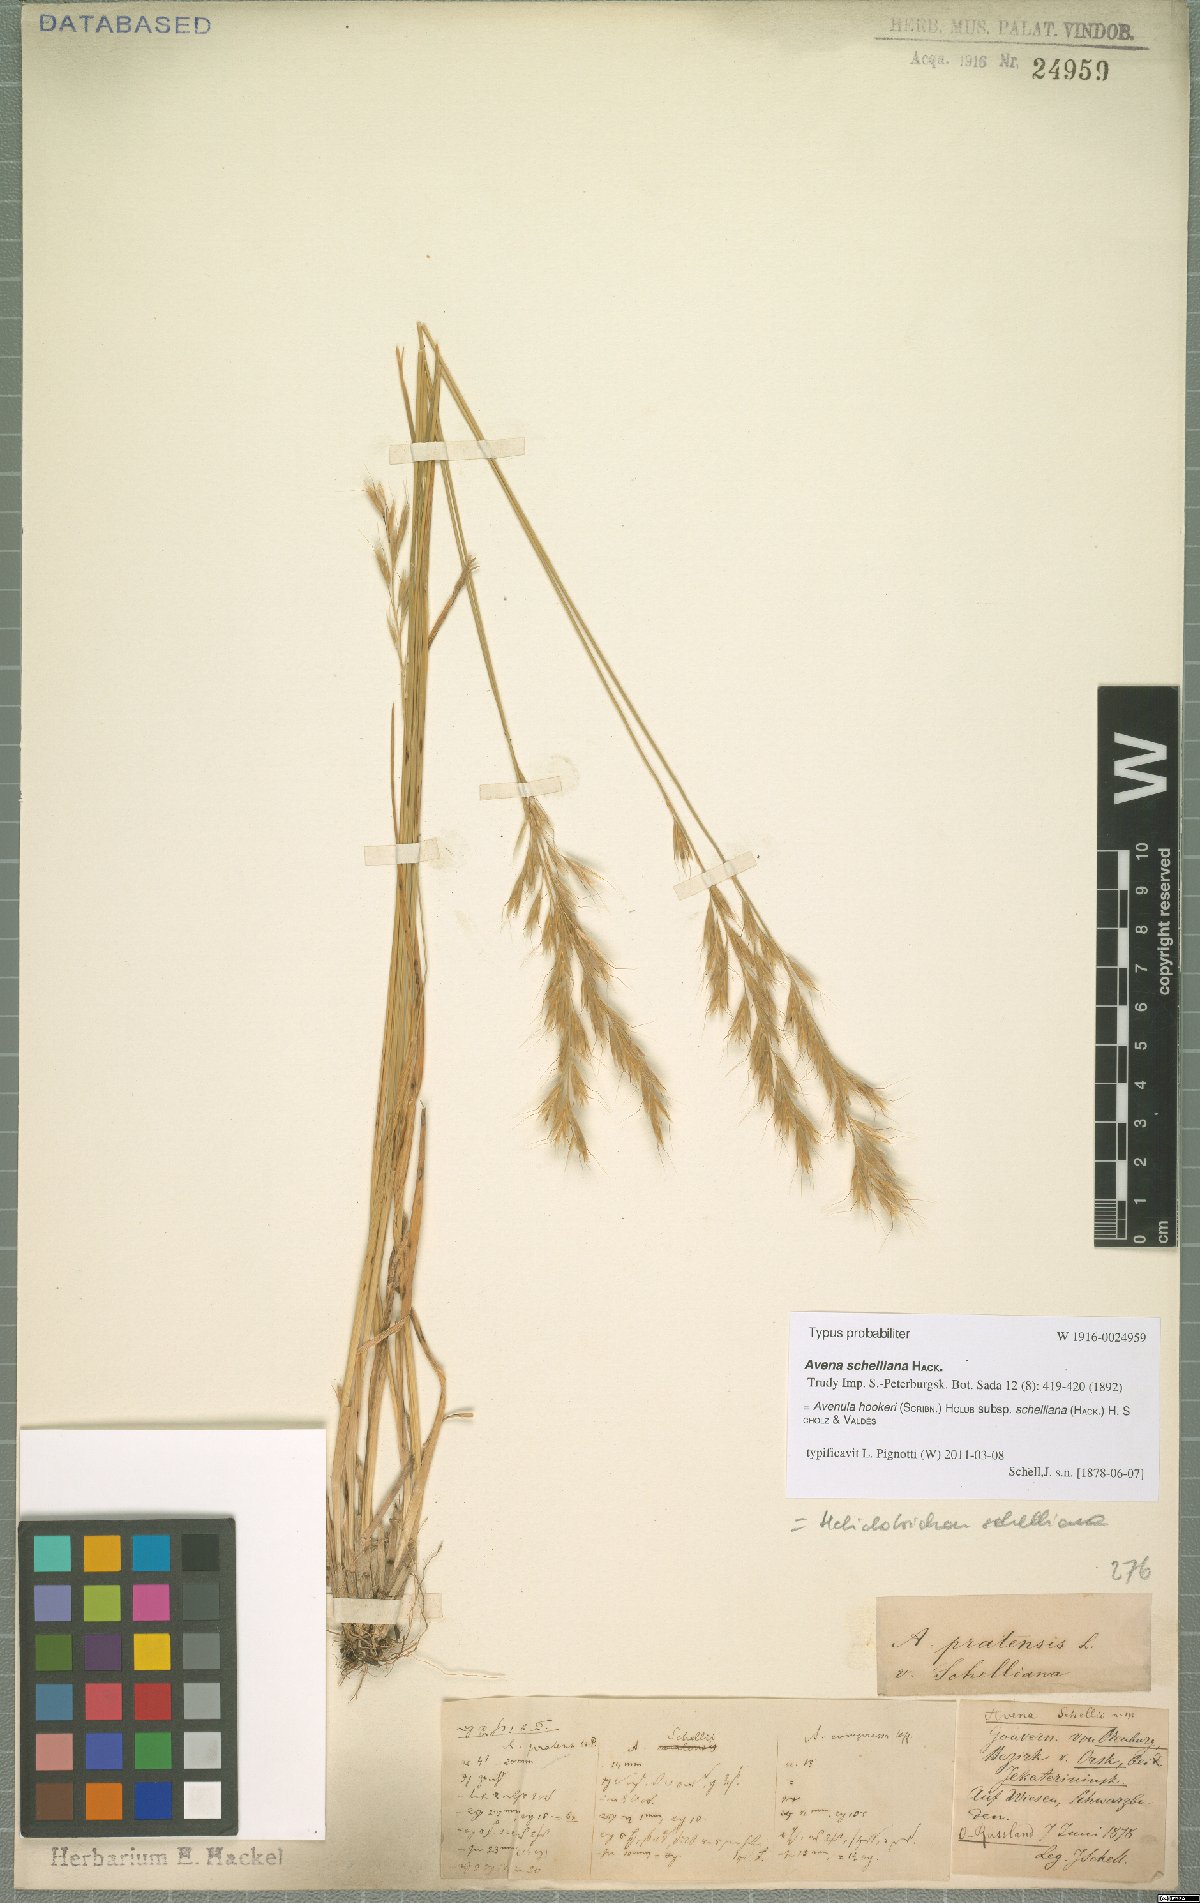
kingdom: Plantae
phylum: Tracheophyta
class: Liliopsida
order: Poales
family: Poaceae
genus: Helictochloa
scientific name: Helictochloa hookeri
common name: Hooker's alpine oatgrass
